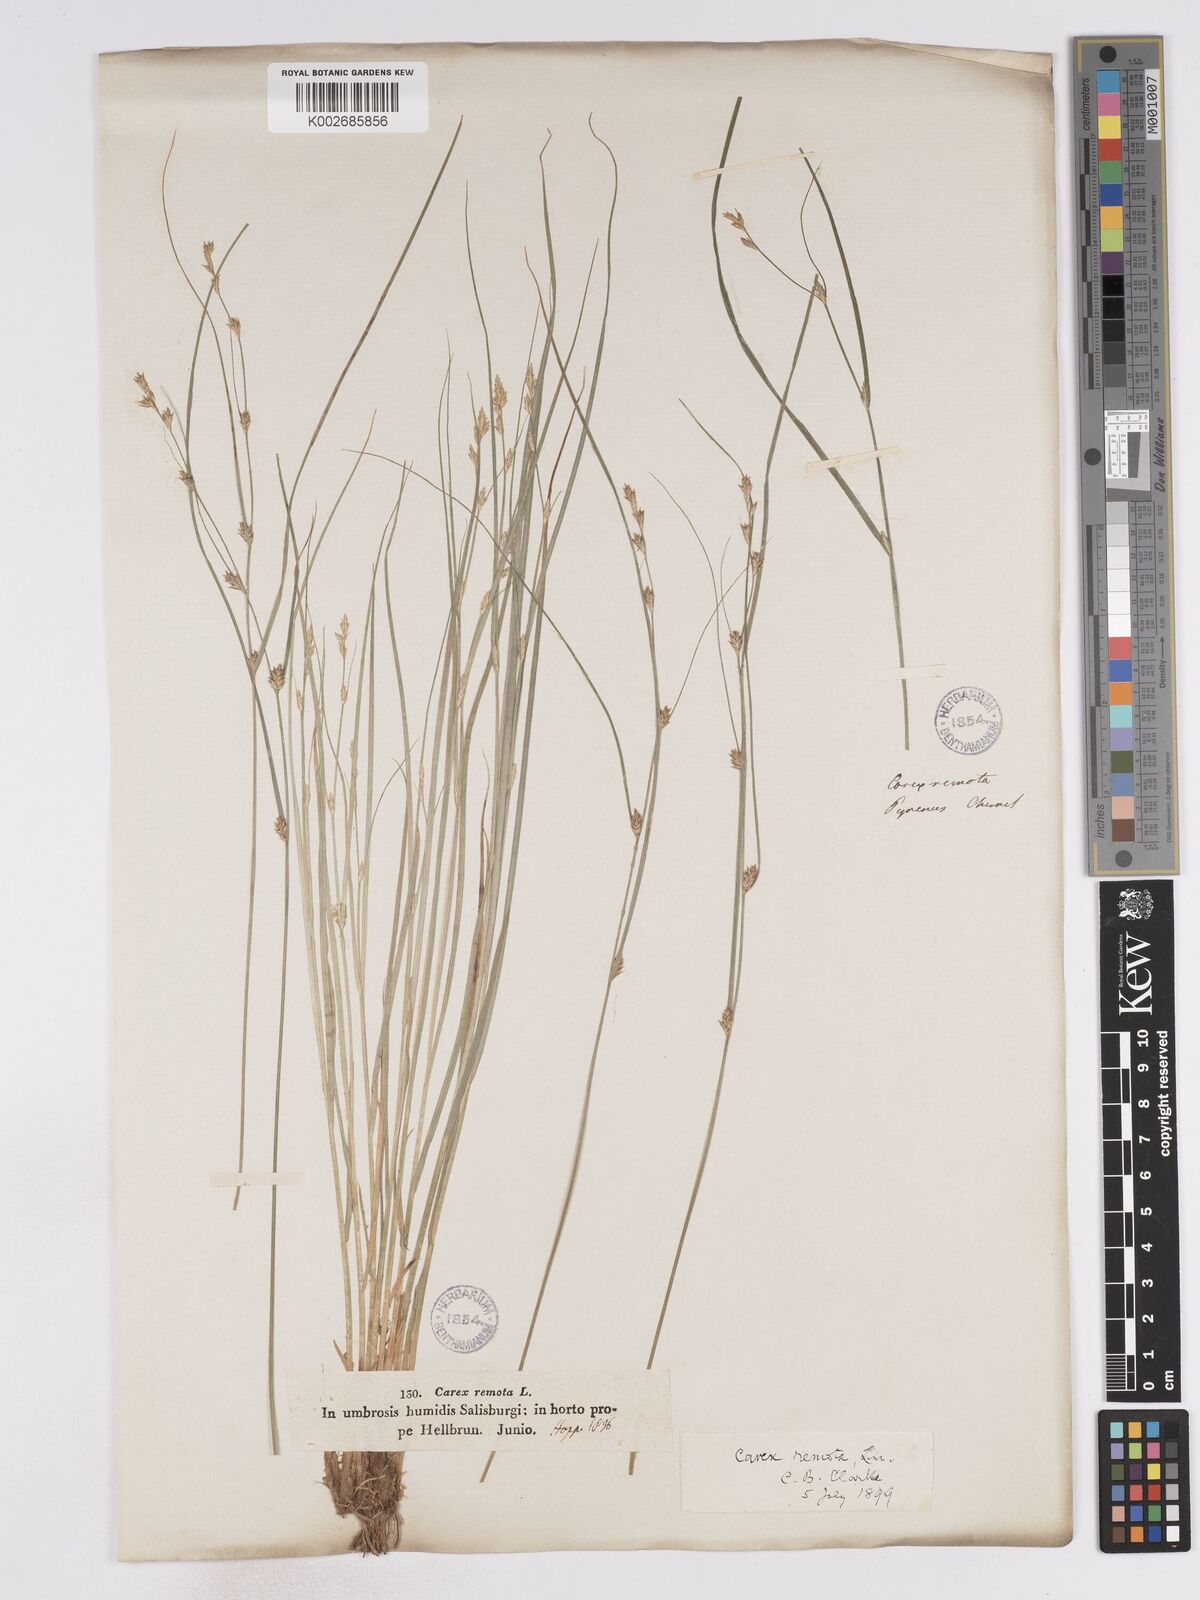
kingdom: Plantae
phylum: Tracheophyta
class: Liliopsida
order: Poales
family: Cyperaceae
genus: Carex
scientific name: Carex remota
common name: Remote sedge
